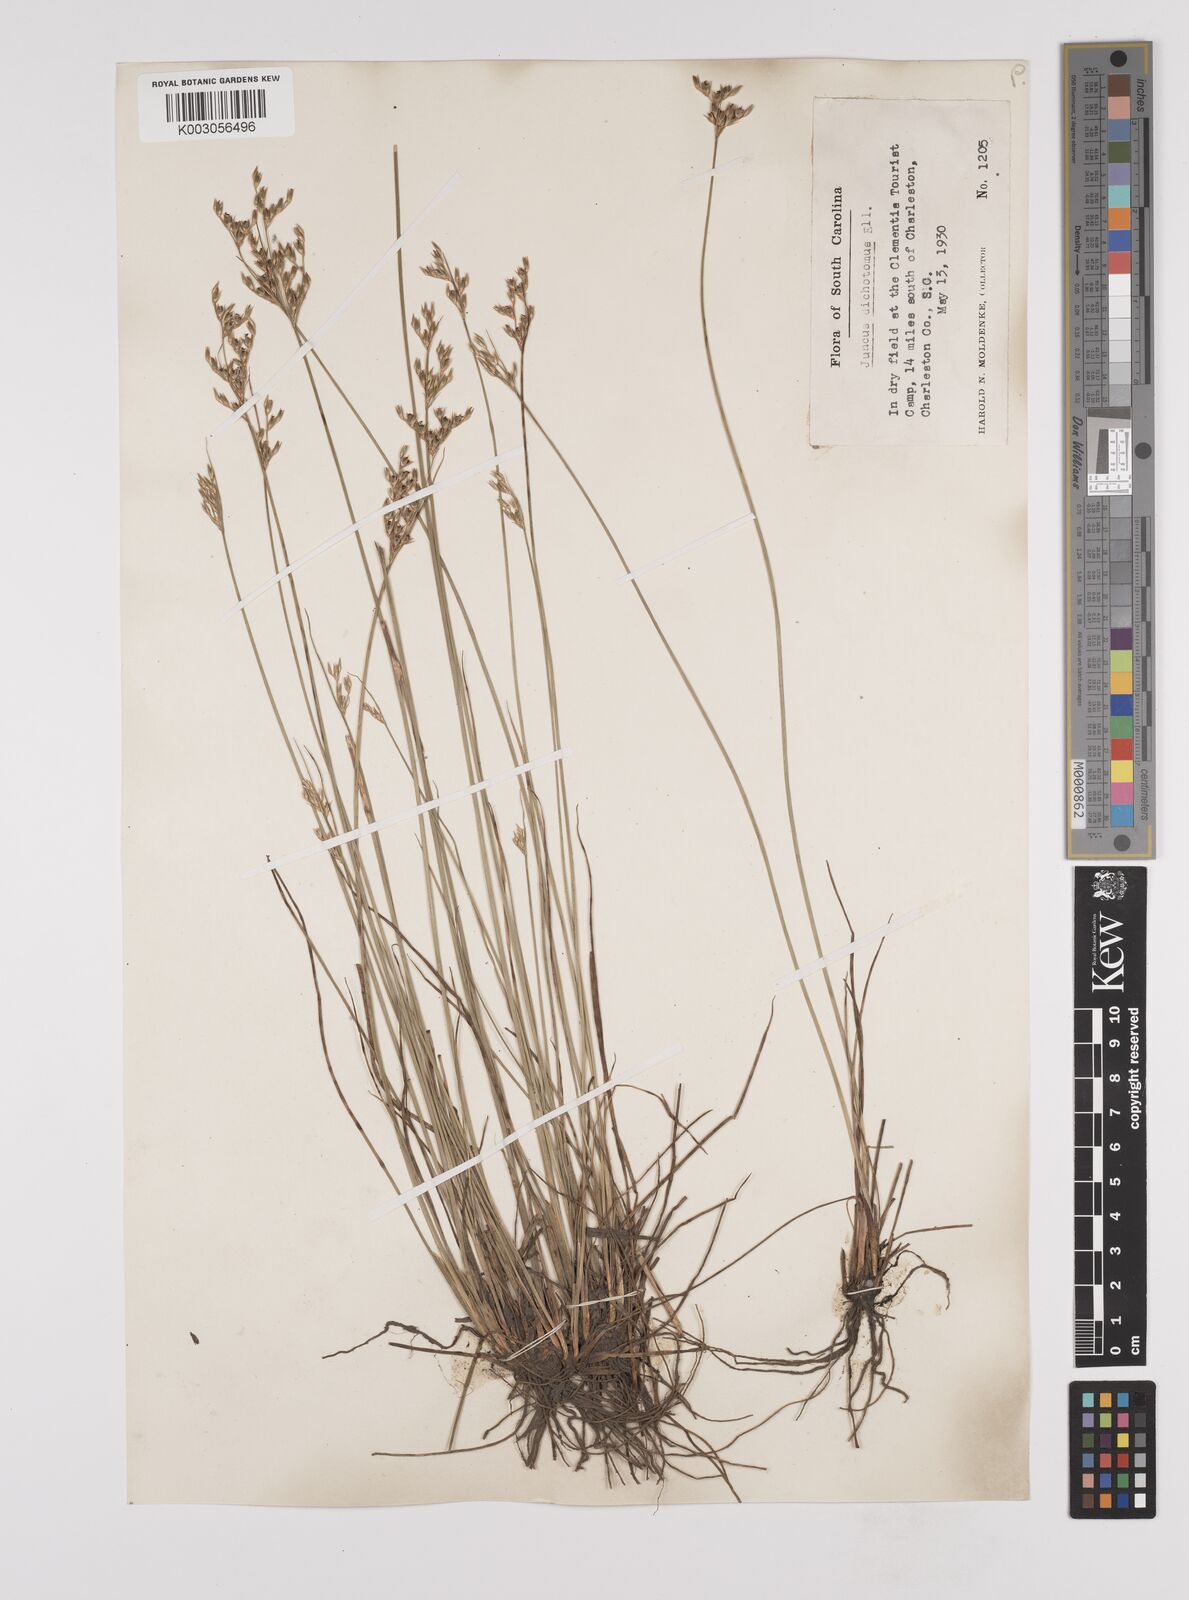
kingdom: Plantae
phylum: Tracheophyta
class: Liliopsida
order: Poales
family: Juncaceae
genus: Juncus
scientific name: Juncus dichotomus
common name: Forked rush
